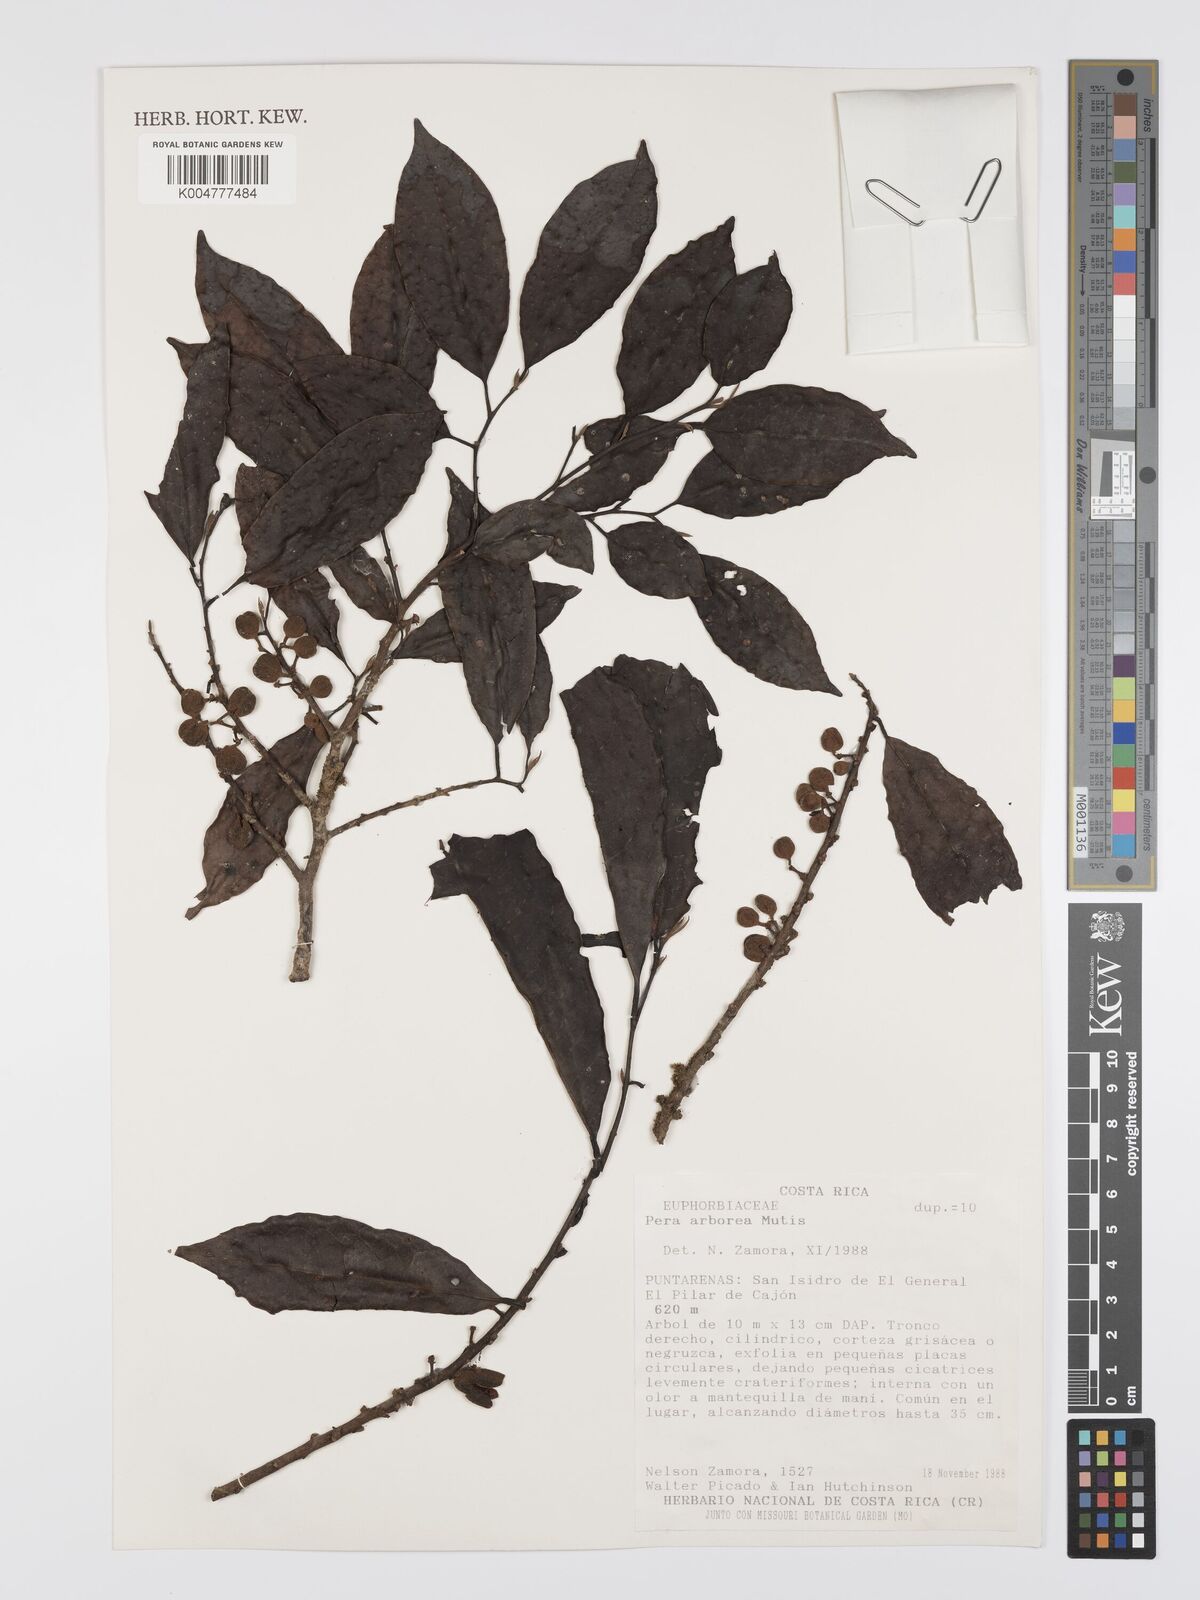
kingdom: Plantae
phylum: Tracheophyta
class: Magnoliopsida
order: Malpighiales
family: Peraceae
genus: Pera
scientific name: Pera
